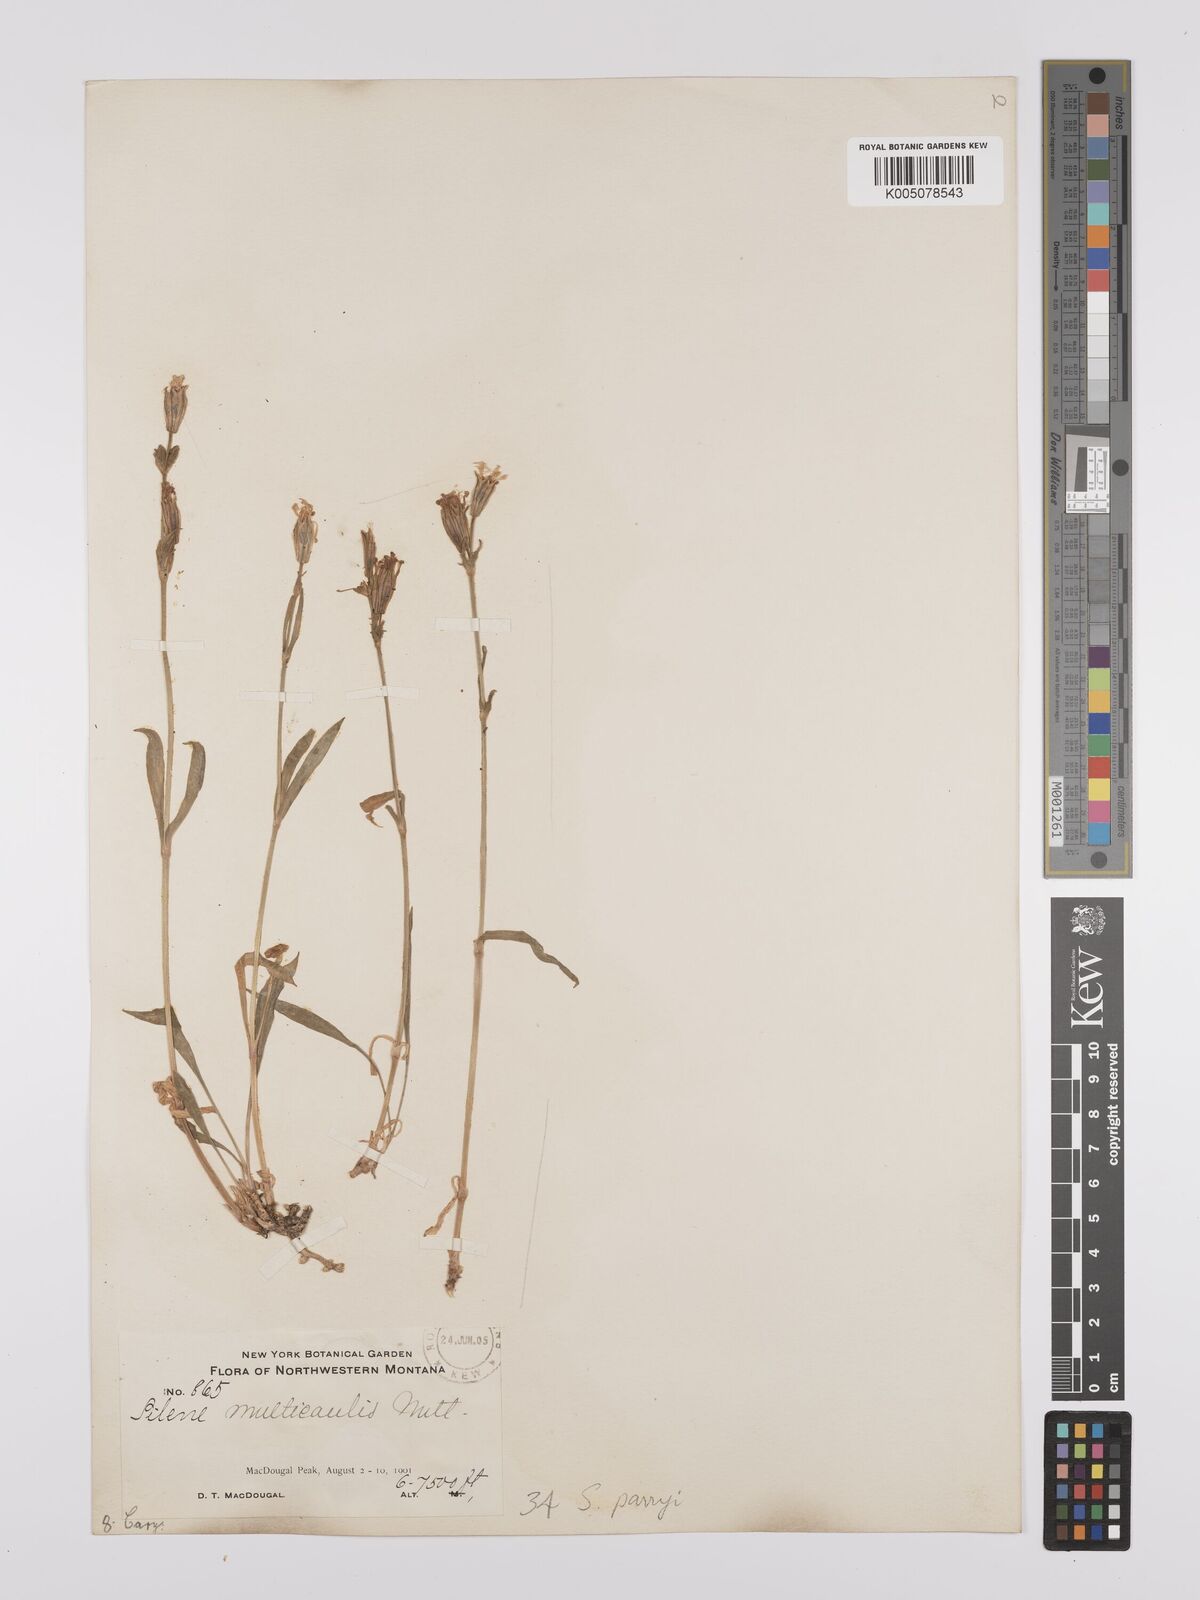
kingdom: Plantae
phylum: Tracheophyta
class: Magnoliopsida
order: Caryophyllales
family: Caryophyllaceae
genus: Silene
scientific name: Silene parryi
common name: Parry's campion
